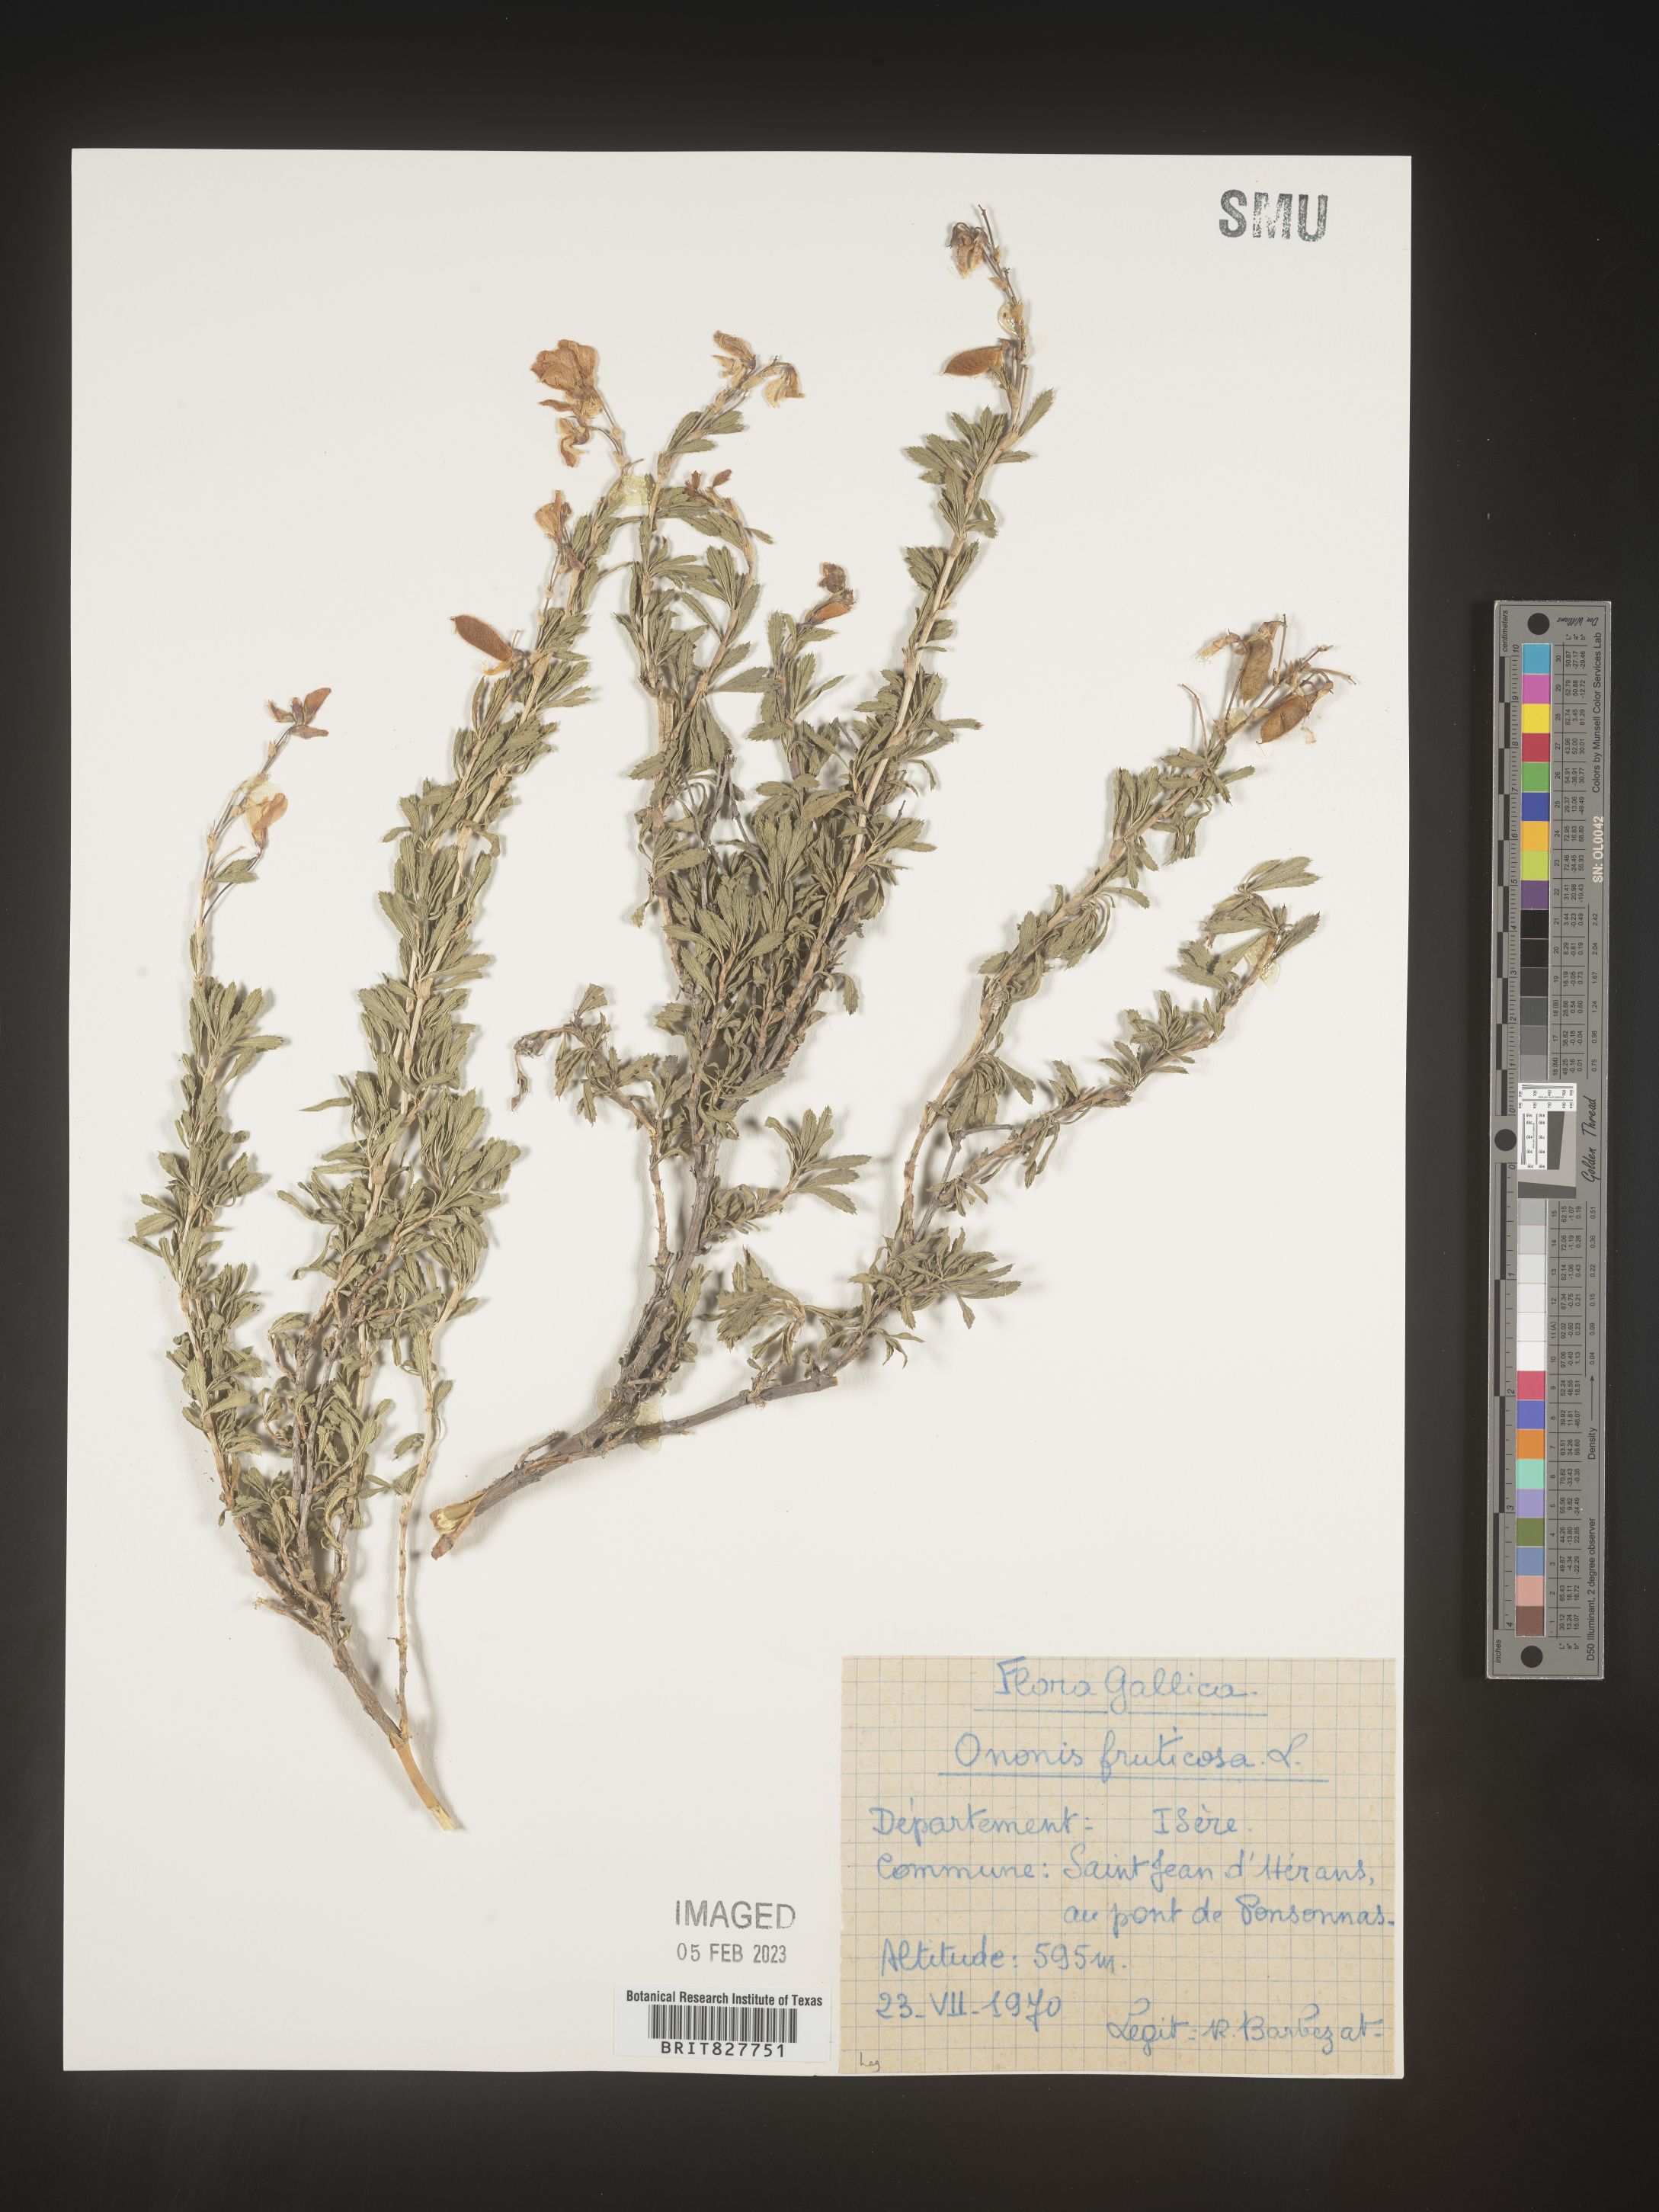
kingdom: Plantae
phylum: Tracheophyta
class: Magnoliopsida
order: Fabales
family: Fabaceae
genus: Ononis
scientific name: Ononis
